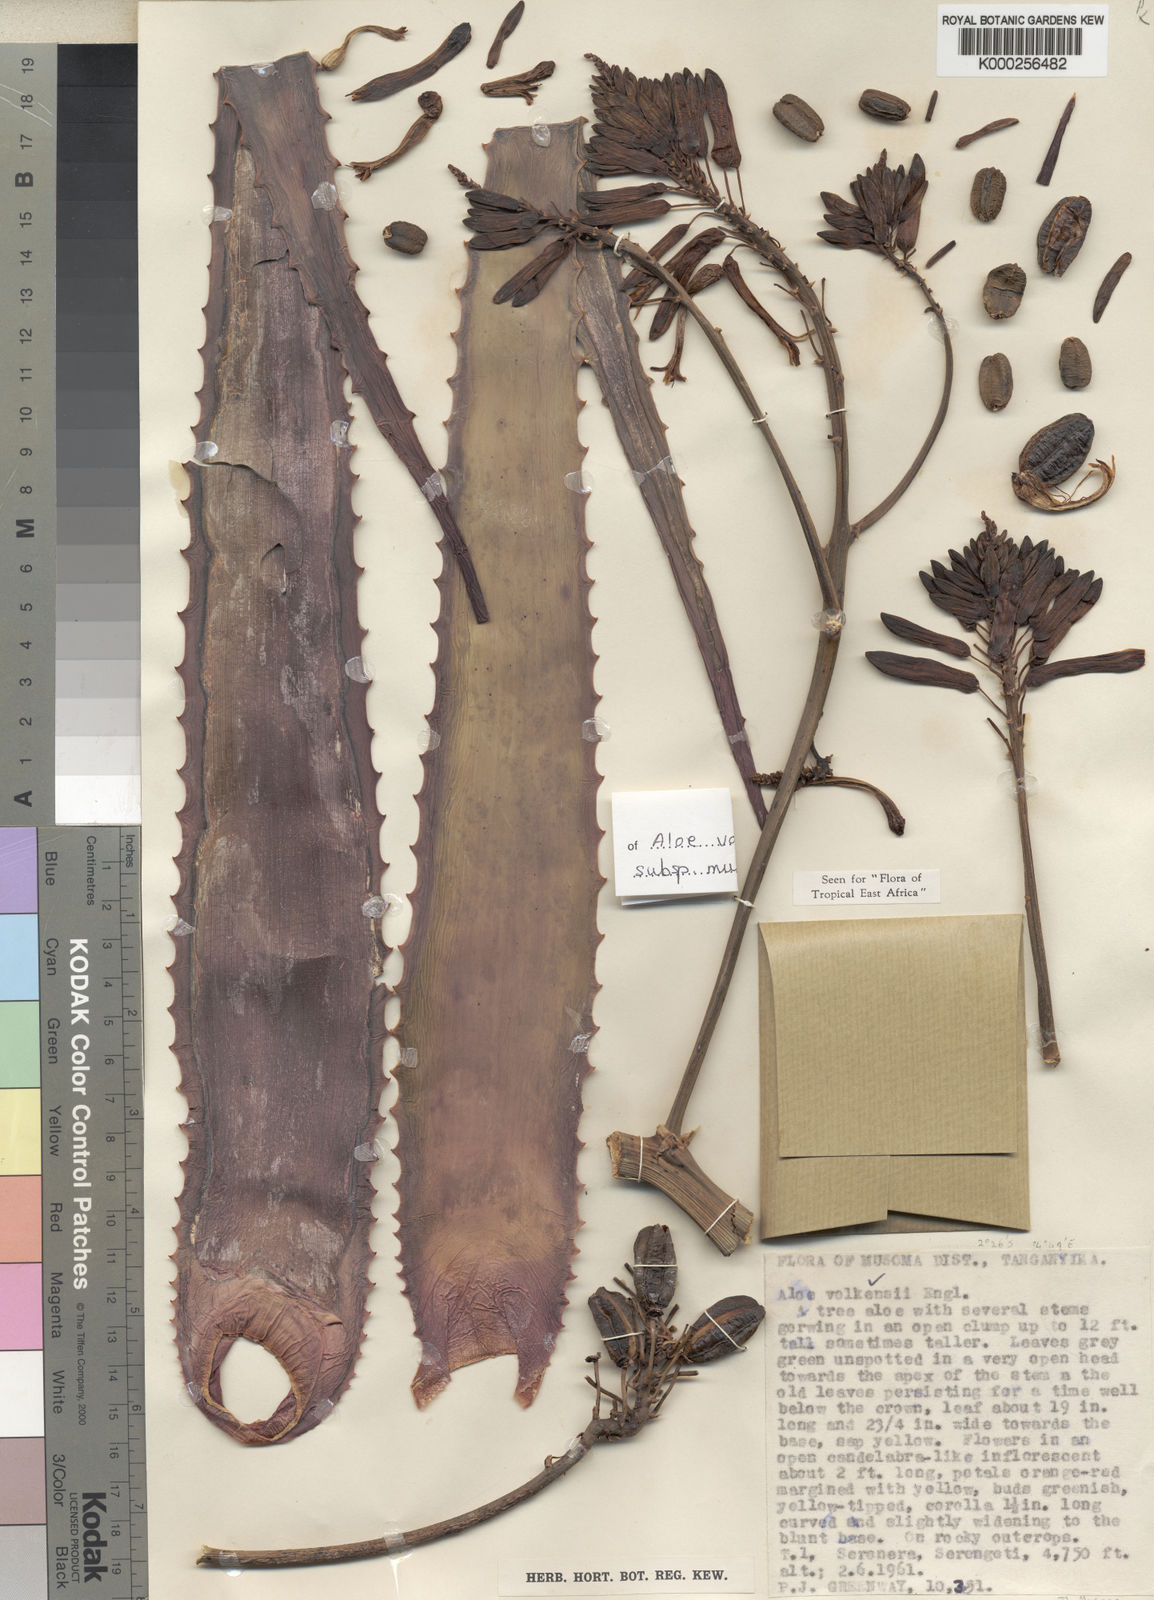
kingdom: Plantae
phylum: Tracheophyta
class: Liliopsida
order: Asparagales
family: Asphodelaceae
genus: Aloe
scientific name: Aloe volkensii
